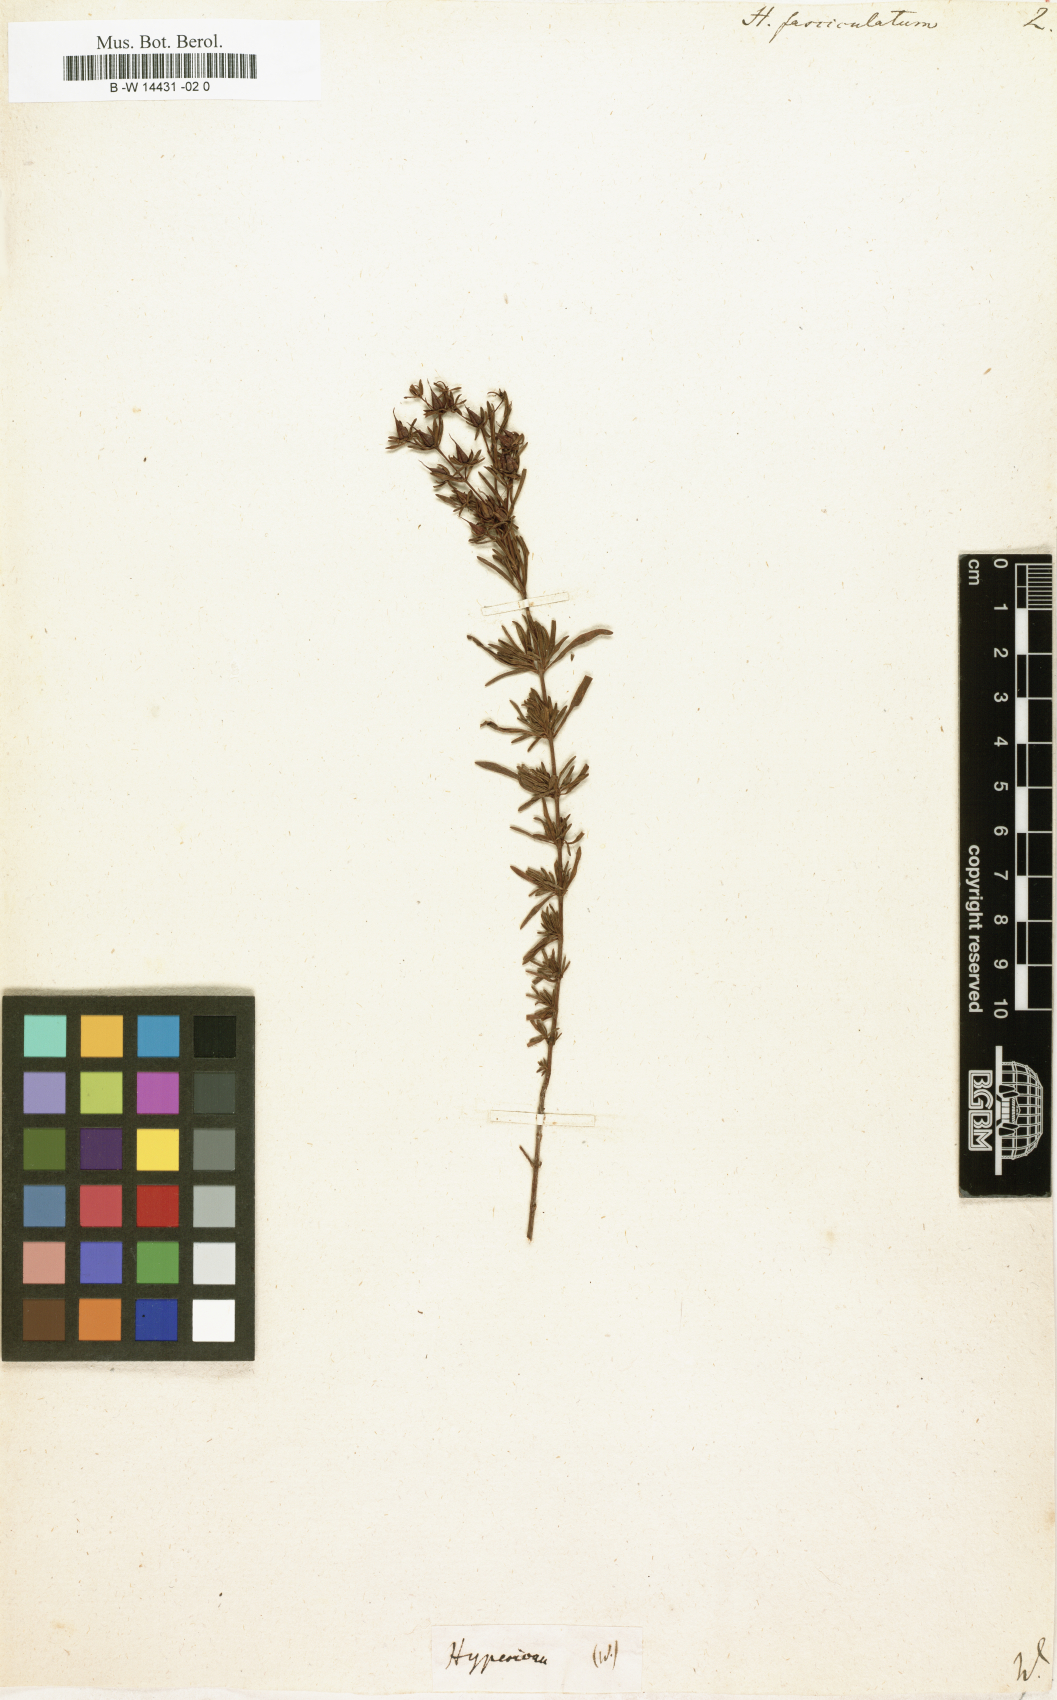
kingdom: Plantae
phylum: Tracheophyta
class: Magnoliopsida
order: Malpighiales
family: Hypericaceae
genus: Hypericum
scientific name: Hypericum fasciculatum
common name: Peelbark st. john's wort
